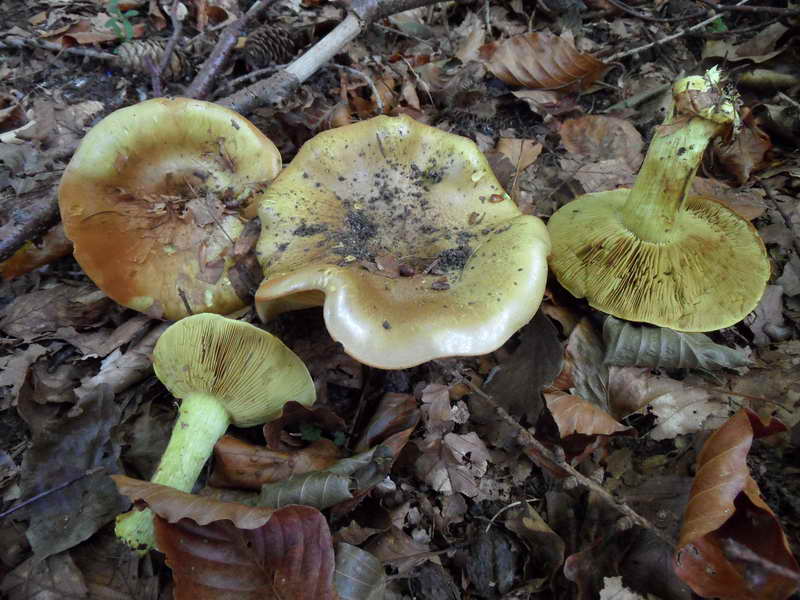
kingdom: Fungi
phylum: Basidiomycota
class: Agaricomycetes
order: Agaricales
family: Cortinariaceae
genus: Calonarius
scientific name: Calonarius citrinus
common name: citrongul slørhat
